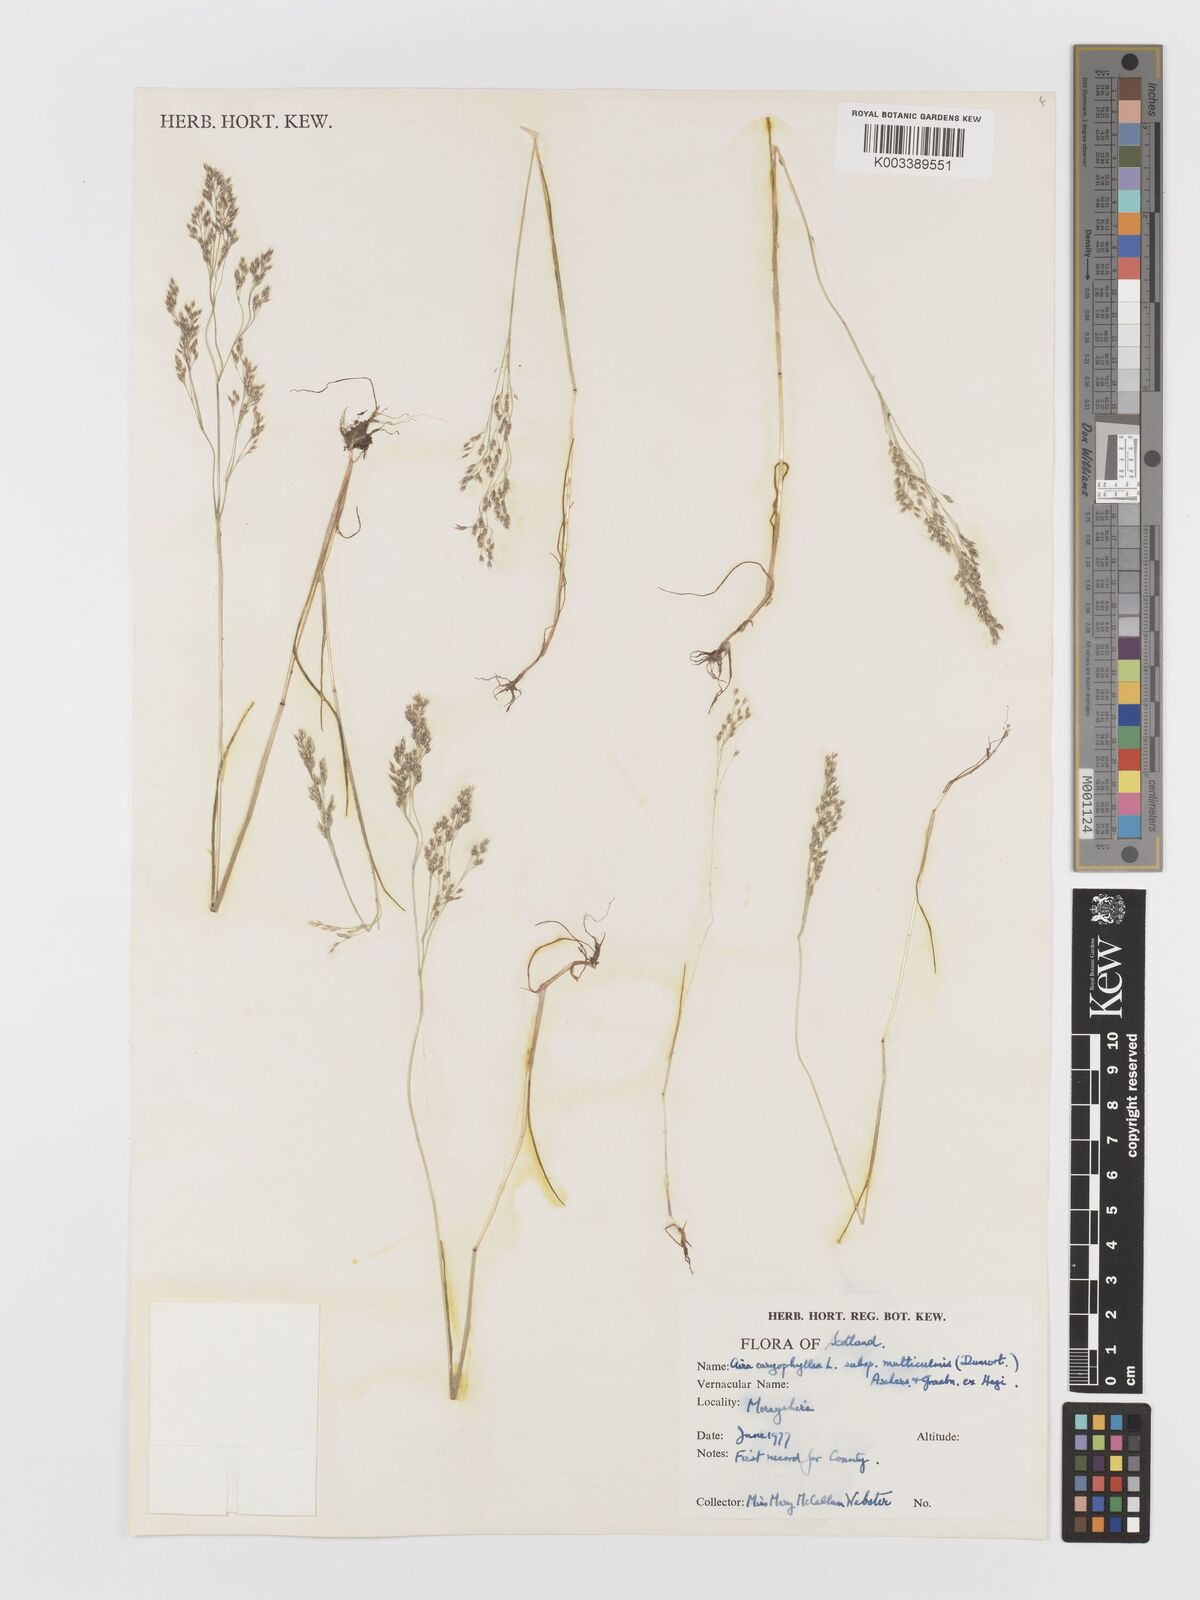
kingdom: Plantae
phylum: Tracheophyta
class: Liliopsida
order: Poales
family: Poaceae
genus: Aira
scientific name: Aira caryophyllea
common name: Silver hairgrass
